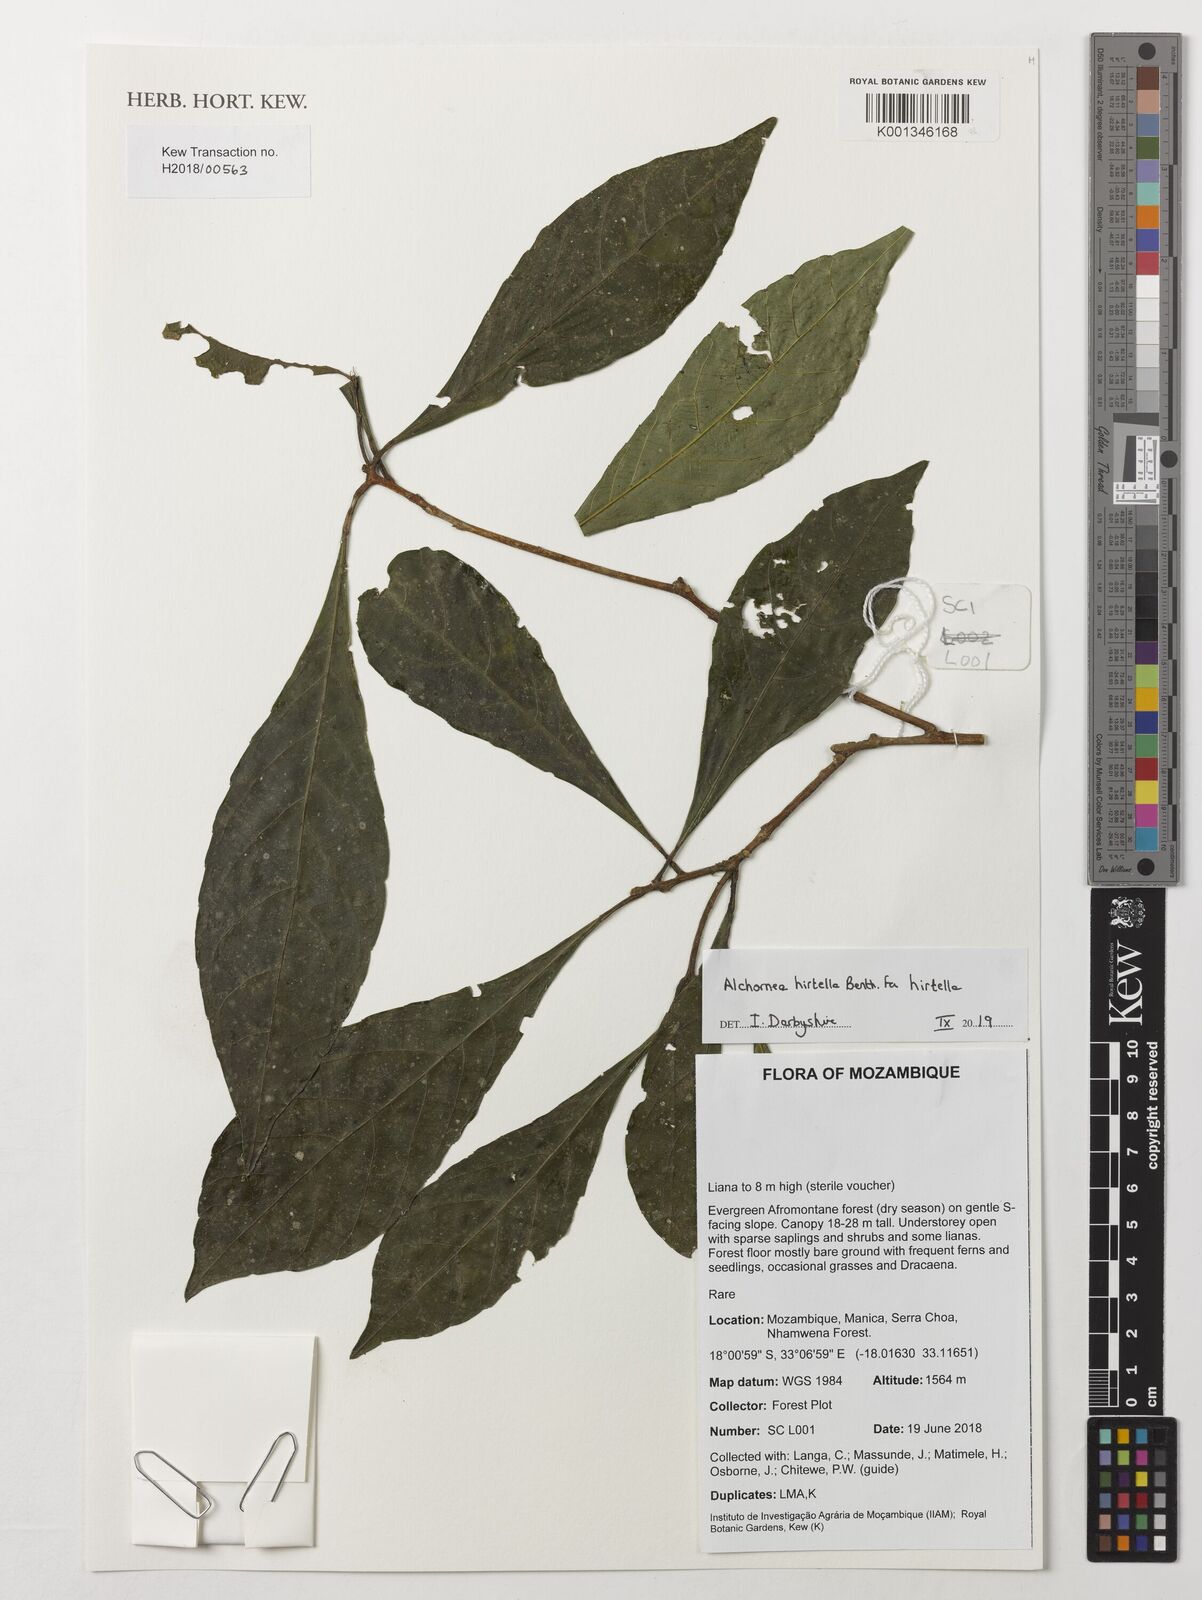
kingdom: Plantae
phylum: Tracheophyta
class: Magnoliopsida
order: Malpighiales
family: Euphorbiaceae
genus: Alchornea
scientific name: Alchornea hirtella
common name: Forest bead-string
